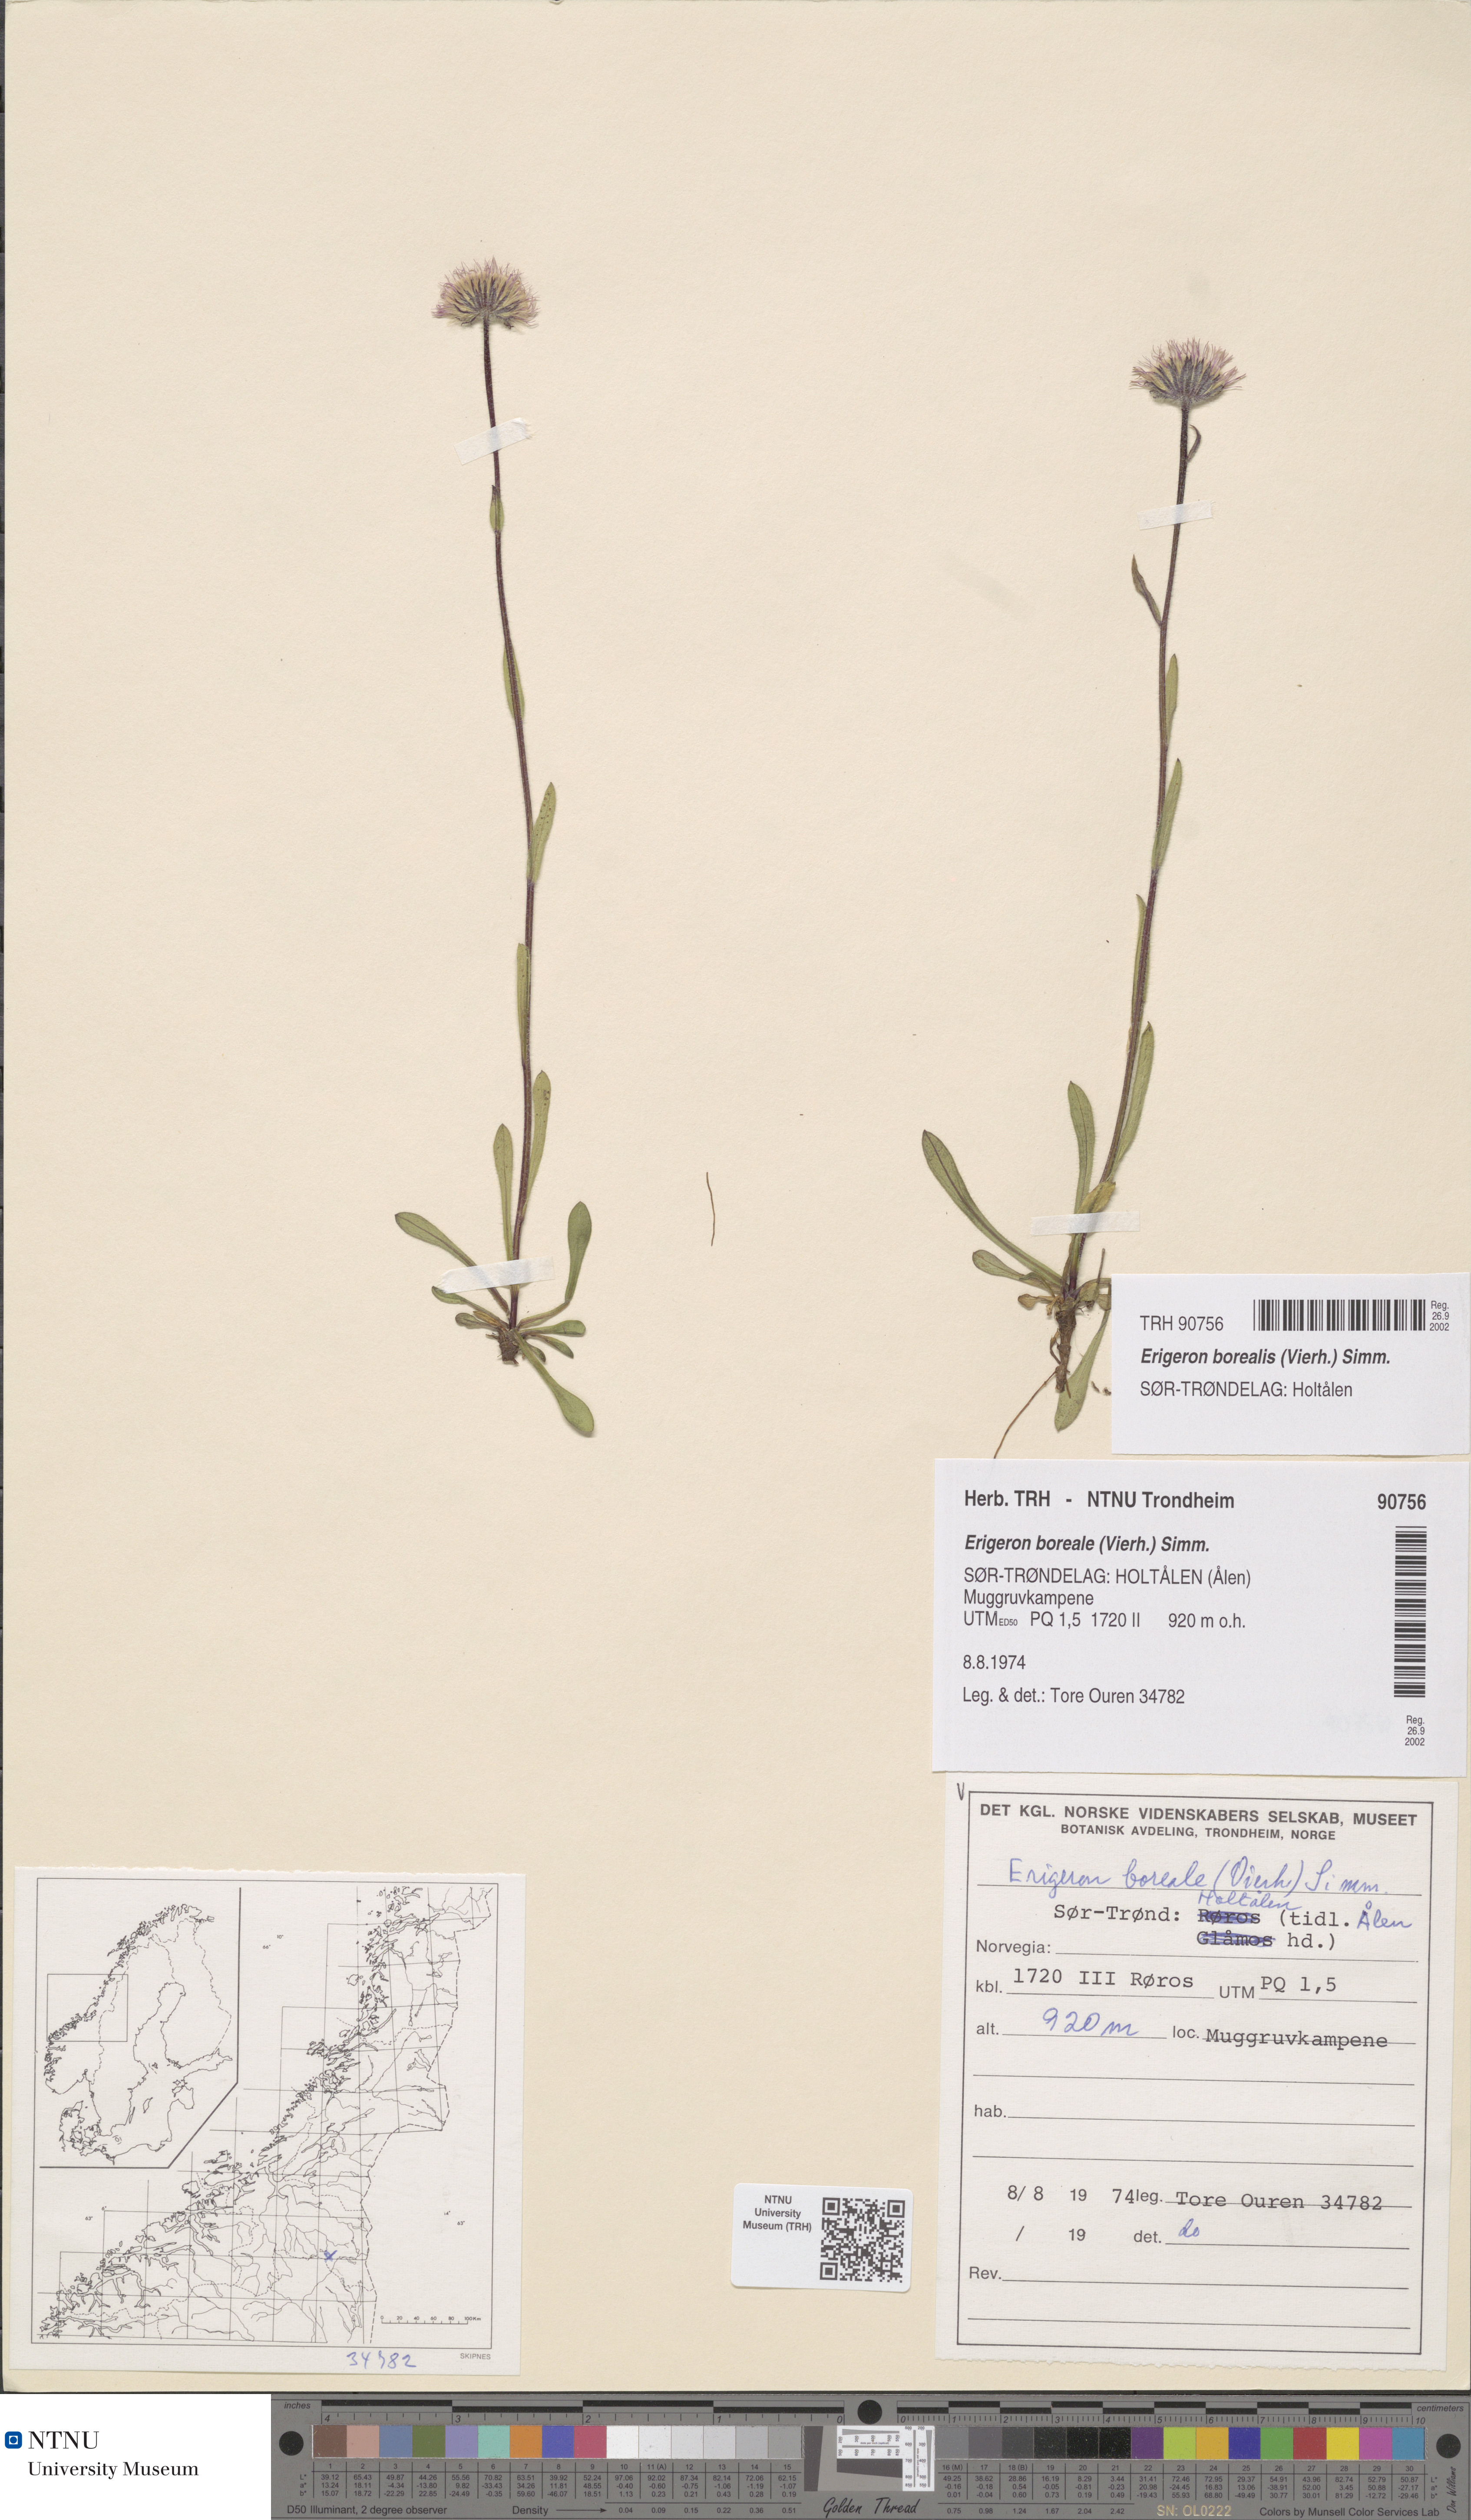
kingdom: Plantae
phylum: Tracheophyta
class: Magnoliopsida
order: Asterales
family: Asteraceae
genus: Erigeron
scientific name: Erigeron borealis
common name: Alpine fleabane
